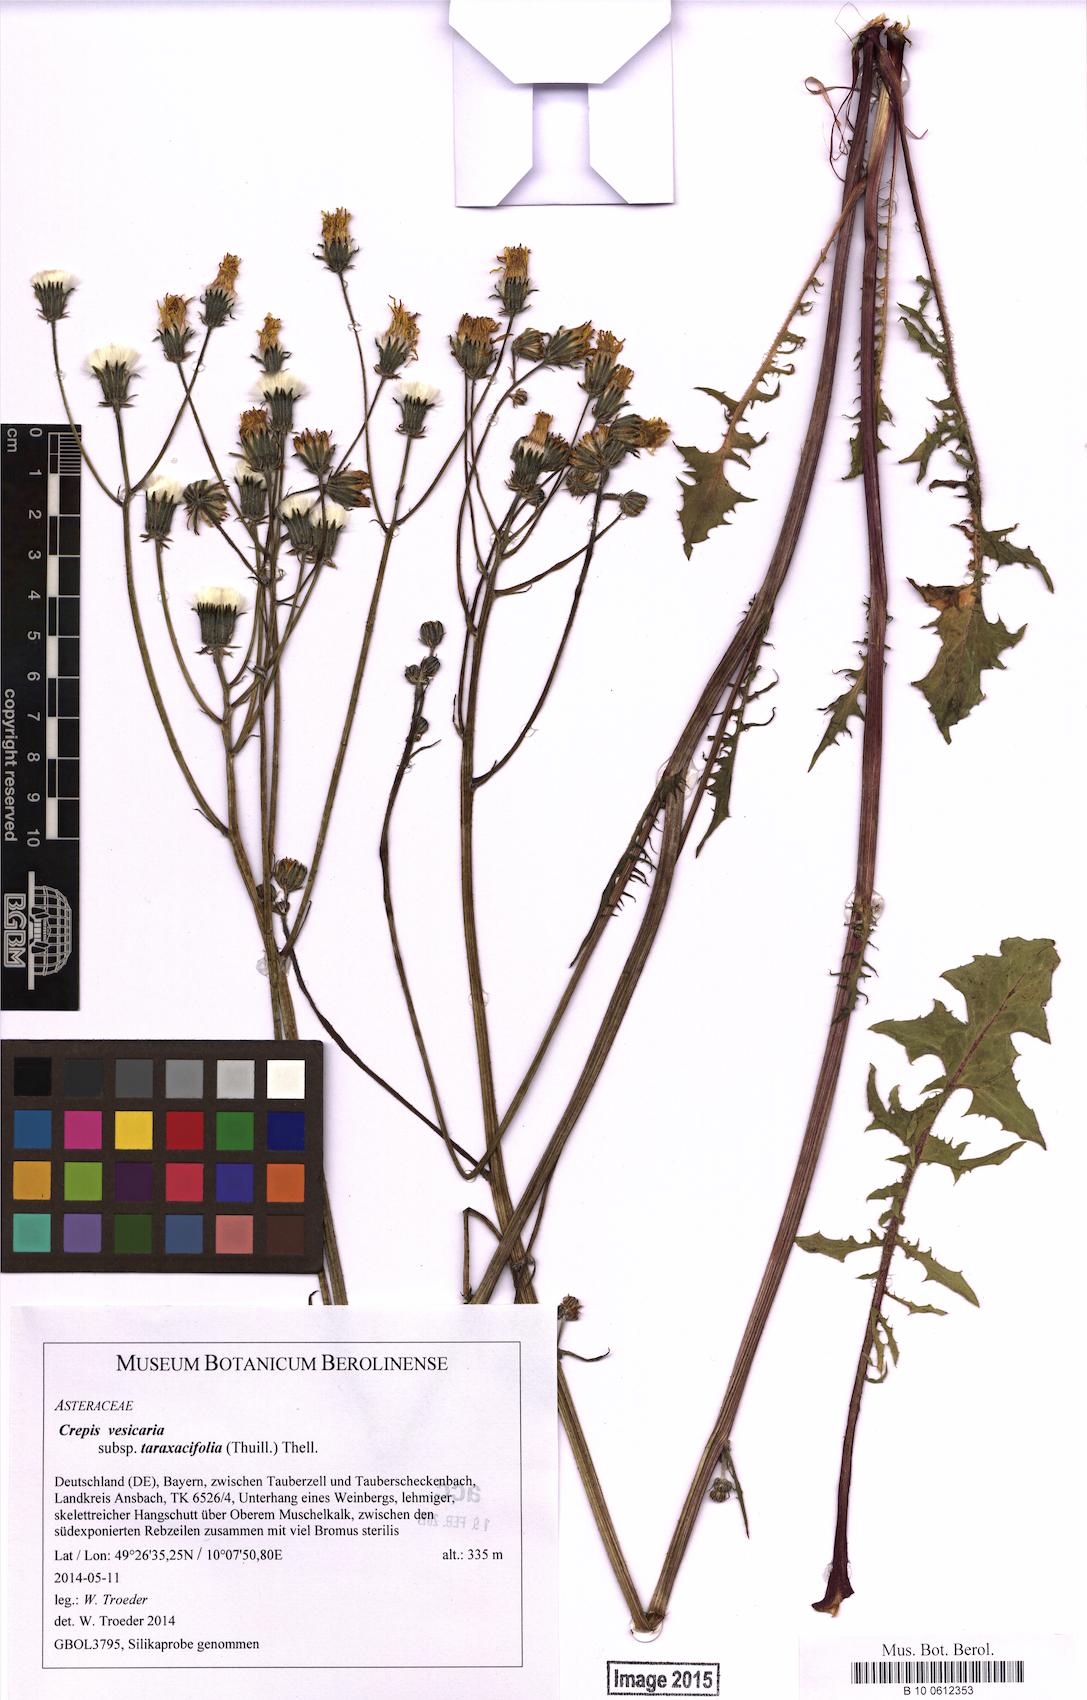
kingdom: Plantae
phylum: Tracheophyta
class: Magnoliopsida
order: Asterales
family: Asteraceae
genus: Crepis
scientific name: Crepis vesicaria
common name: Beaked hawksbeard
